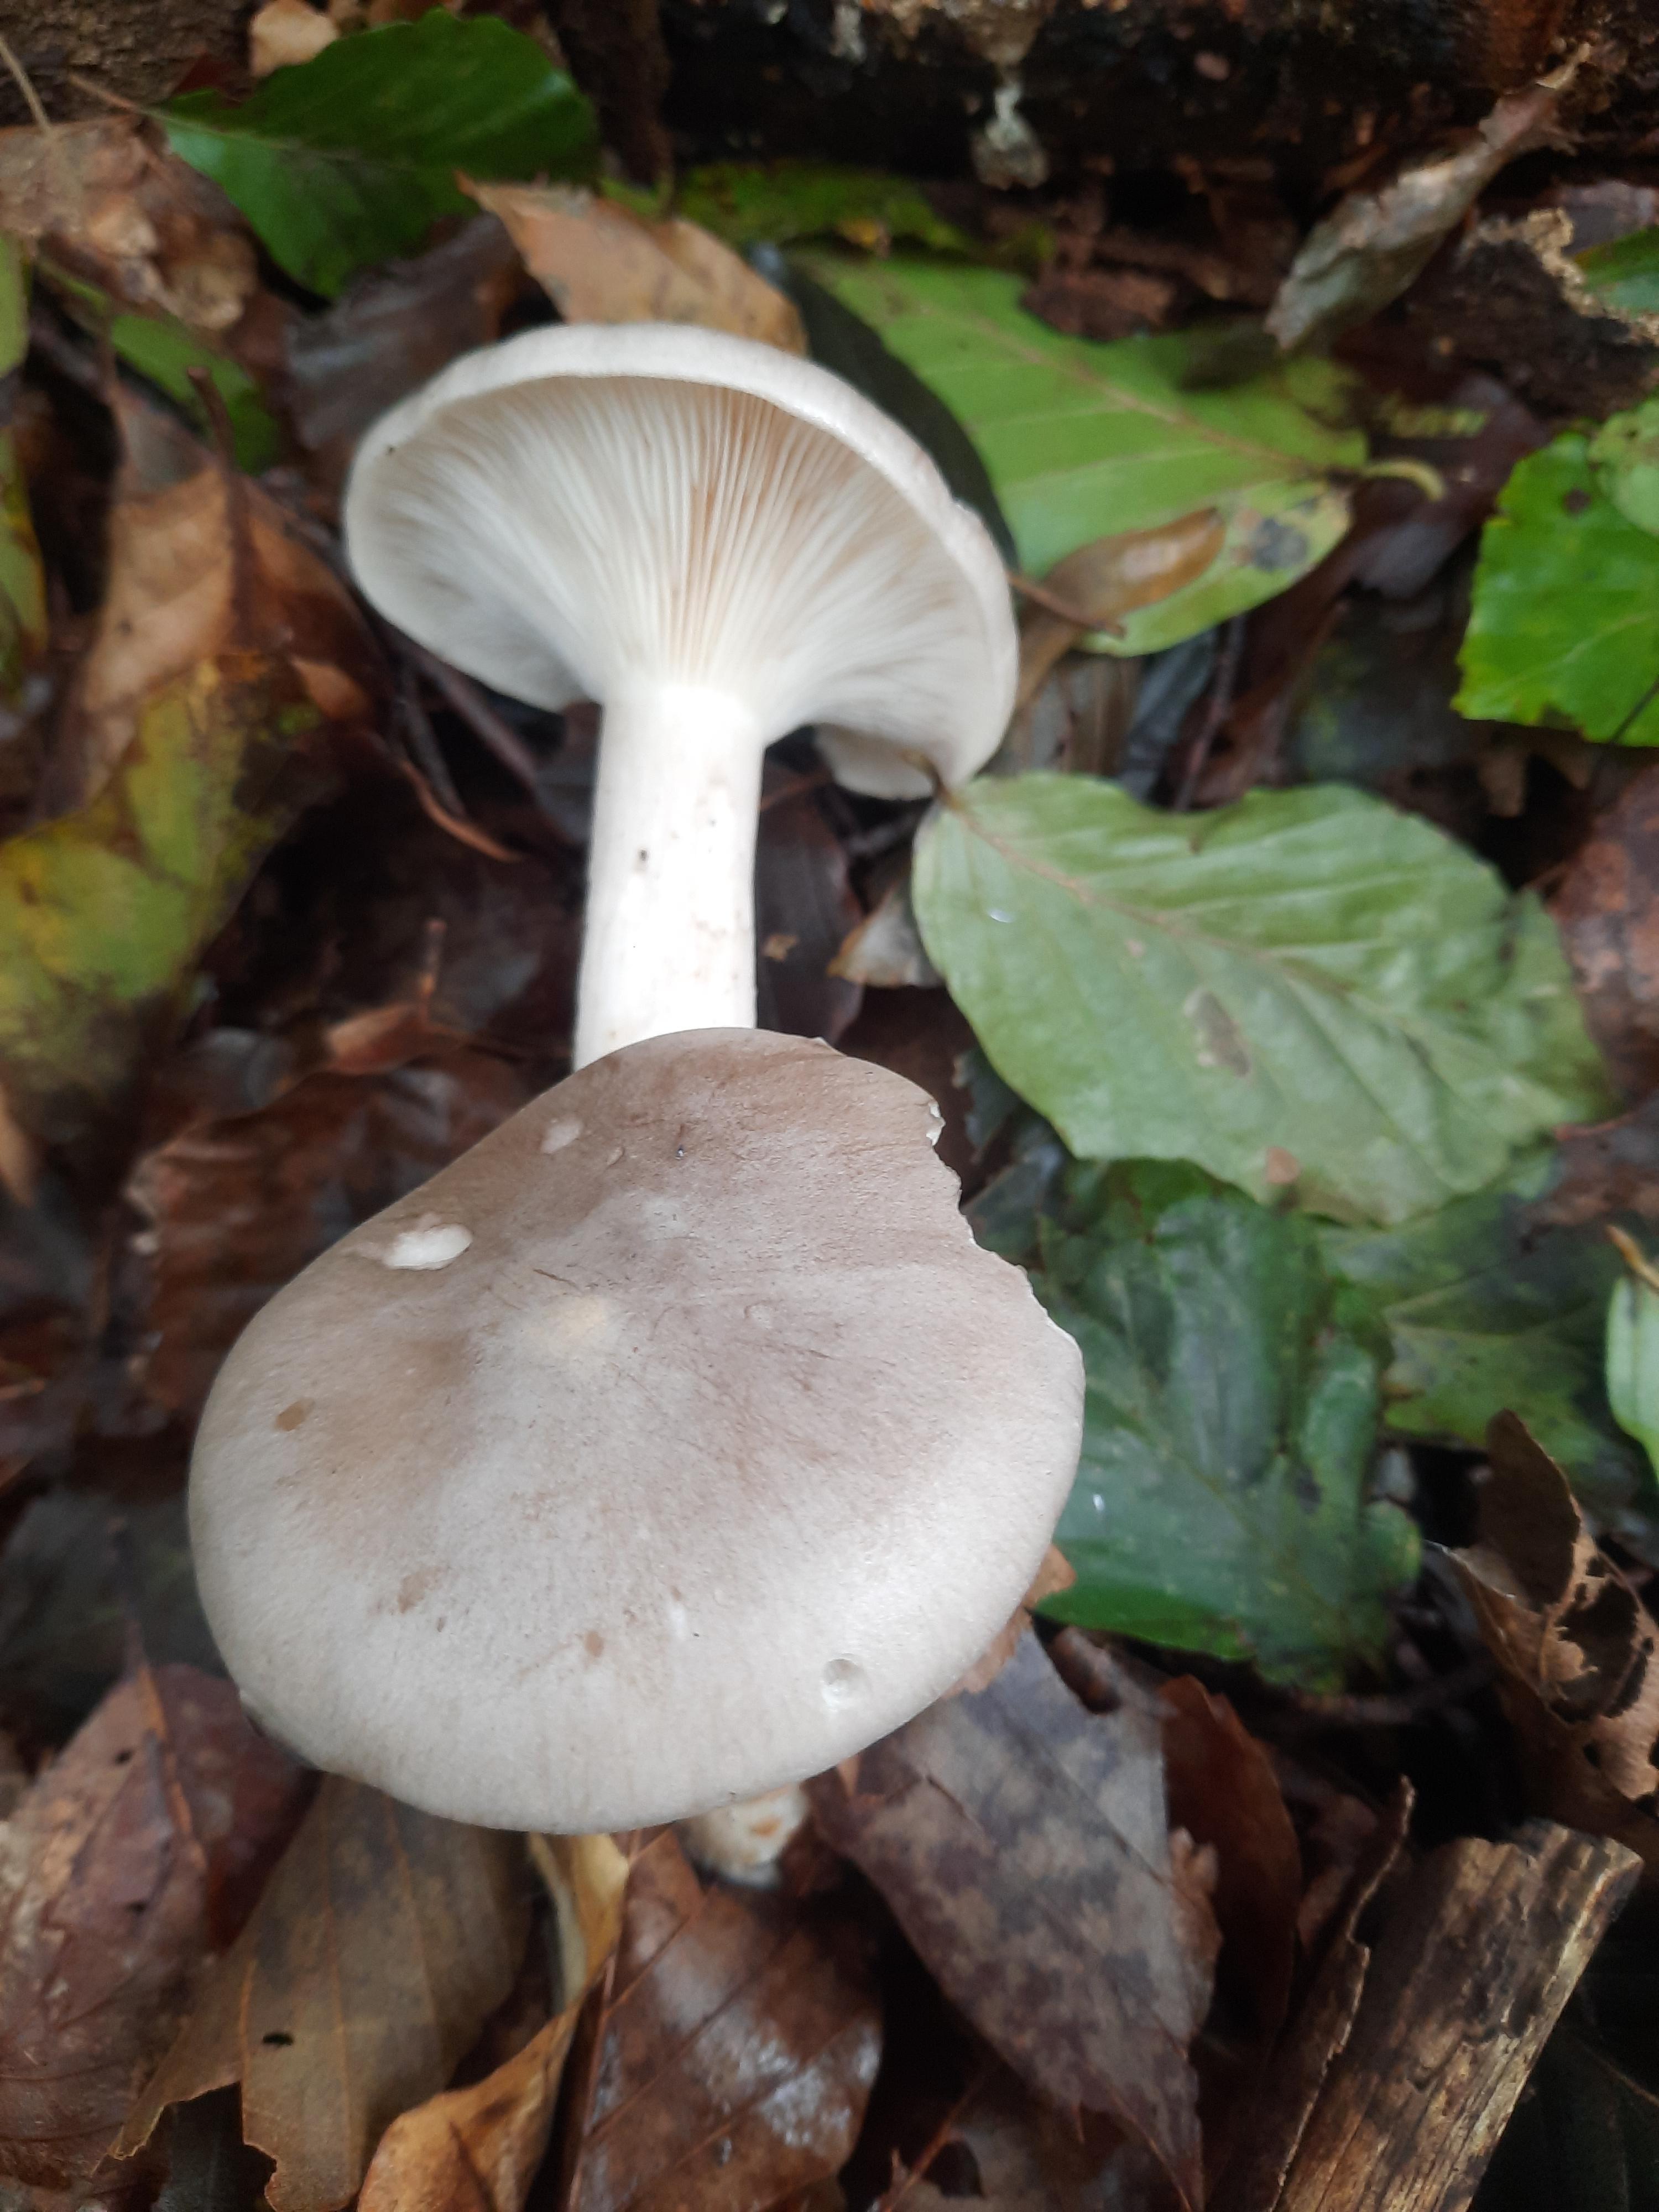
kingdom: Fungi
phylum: Basidiomycota
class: Agaricomycetes
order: Agaricales
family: Tricholomataceae
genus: Clitocybe
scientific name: Clitocybe nebularis
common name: tåge-tragthat
